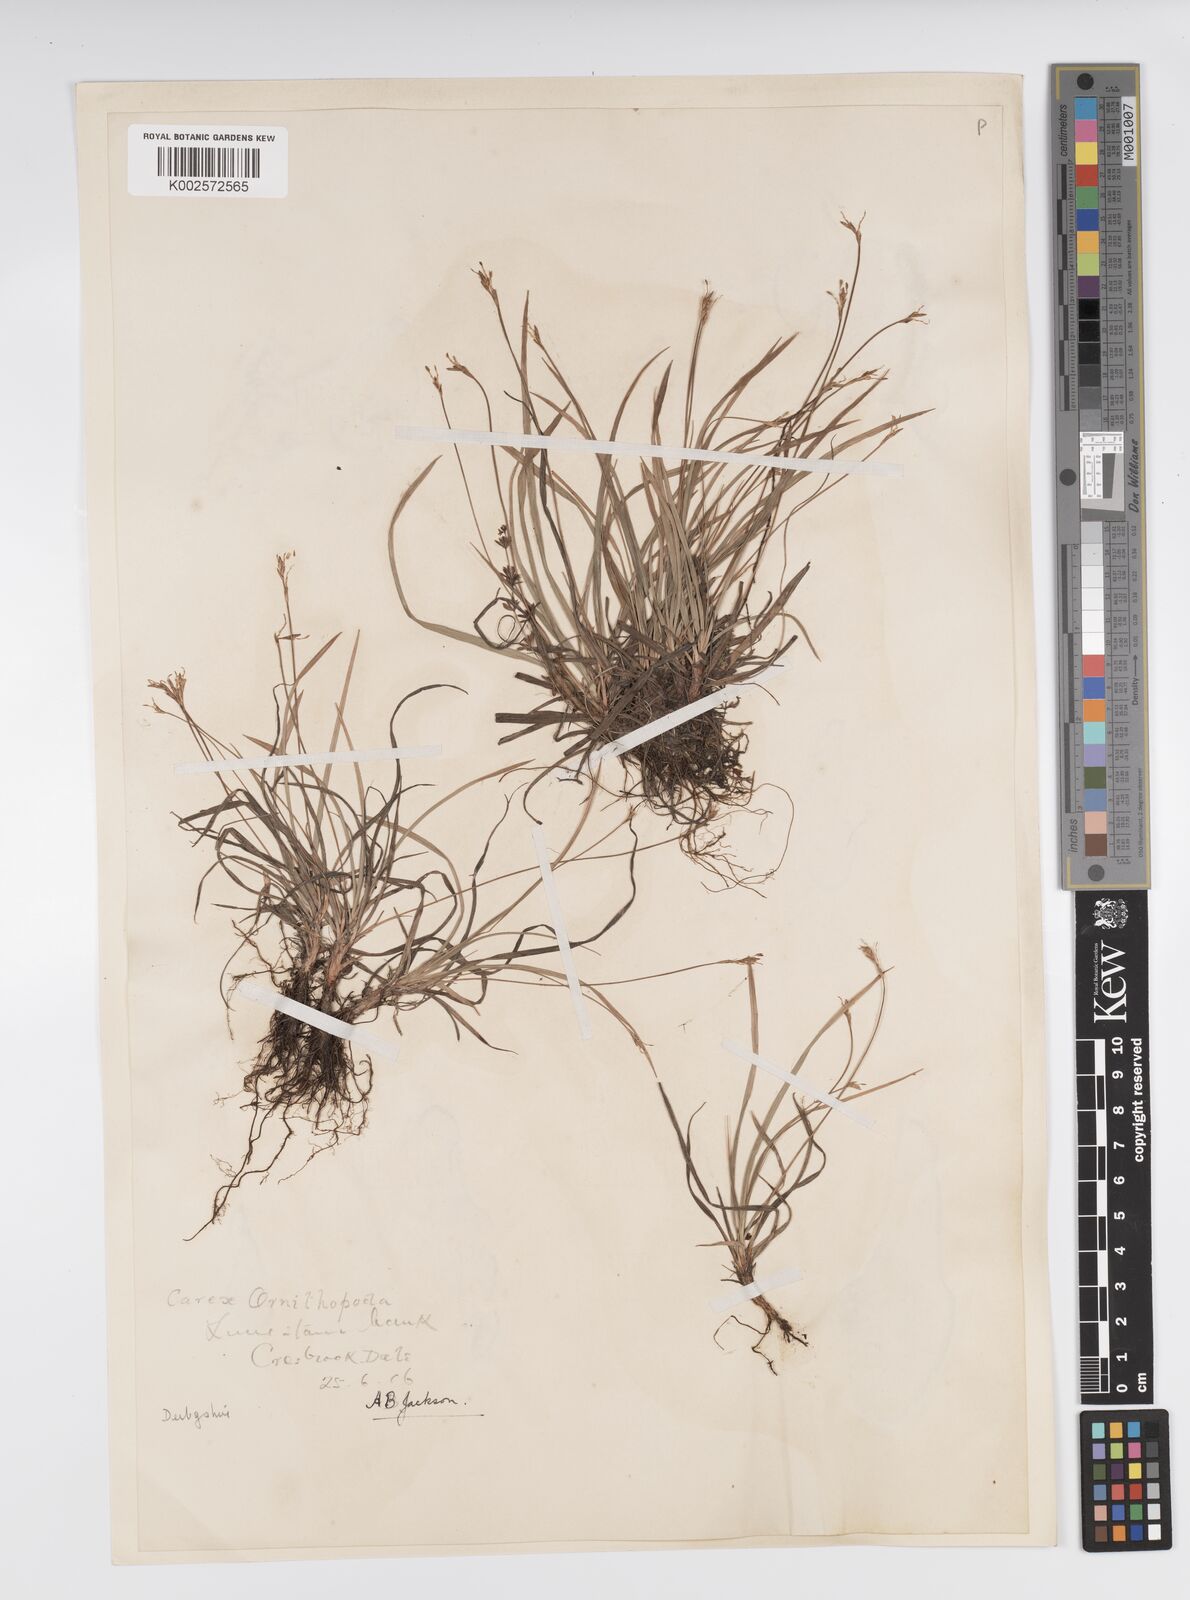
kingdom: Plantae
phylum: Tracheophyta
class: Liliopsida
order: Poales
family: Cyperaceae
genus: Carex
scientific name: Carex ornithopoda
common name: Bird's-foot sedge
